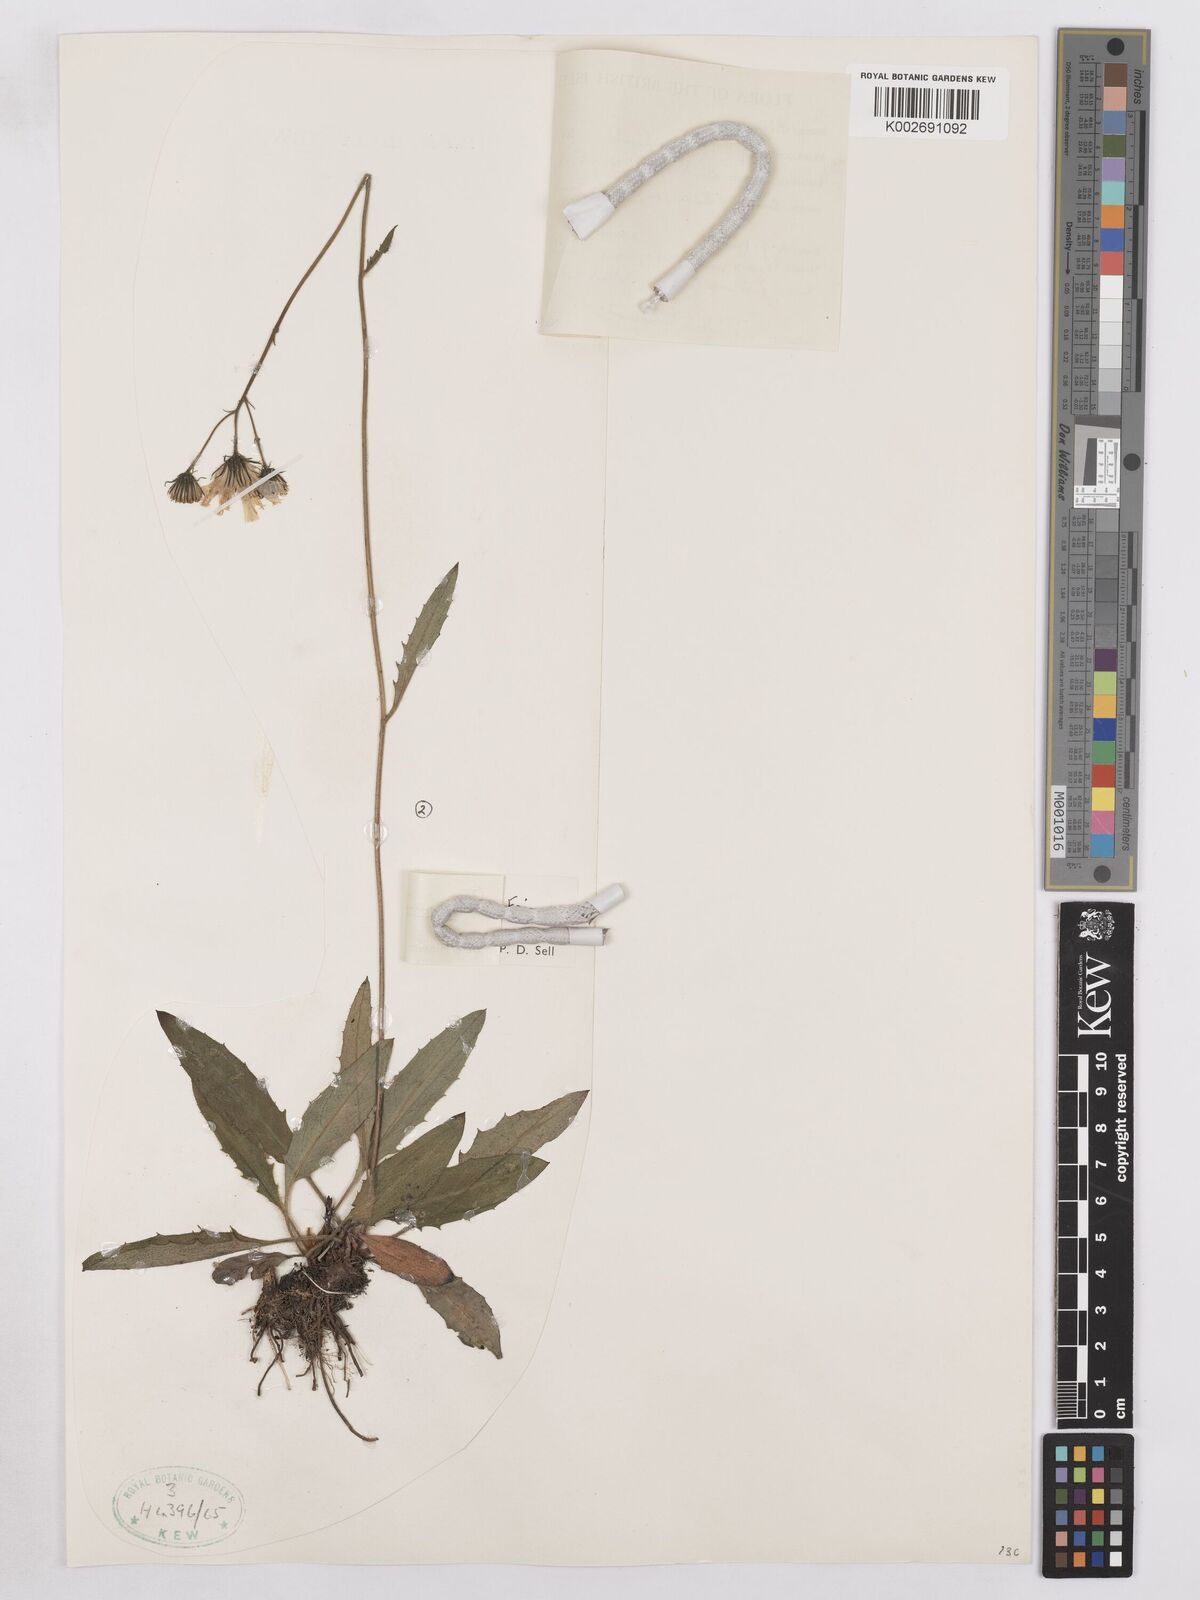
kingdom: Plantae
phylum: Tracheophyta
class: Magnoliopsida
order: Asterales
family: Asteraceae
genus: Hieracium
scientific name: Hieracium lachenalii
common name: Common hawkweed
